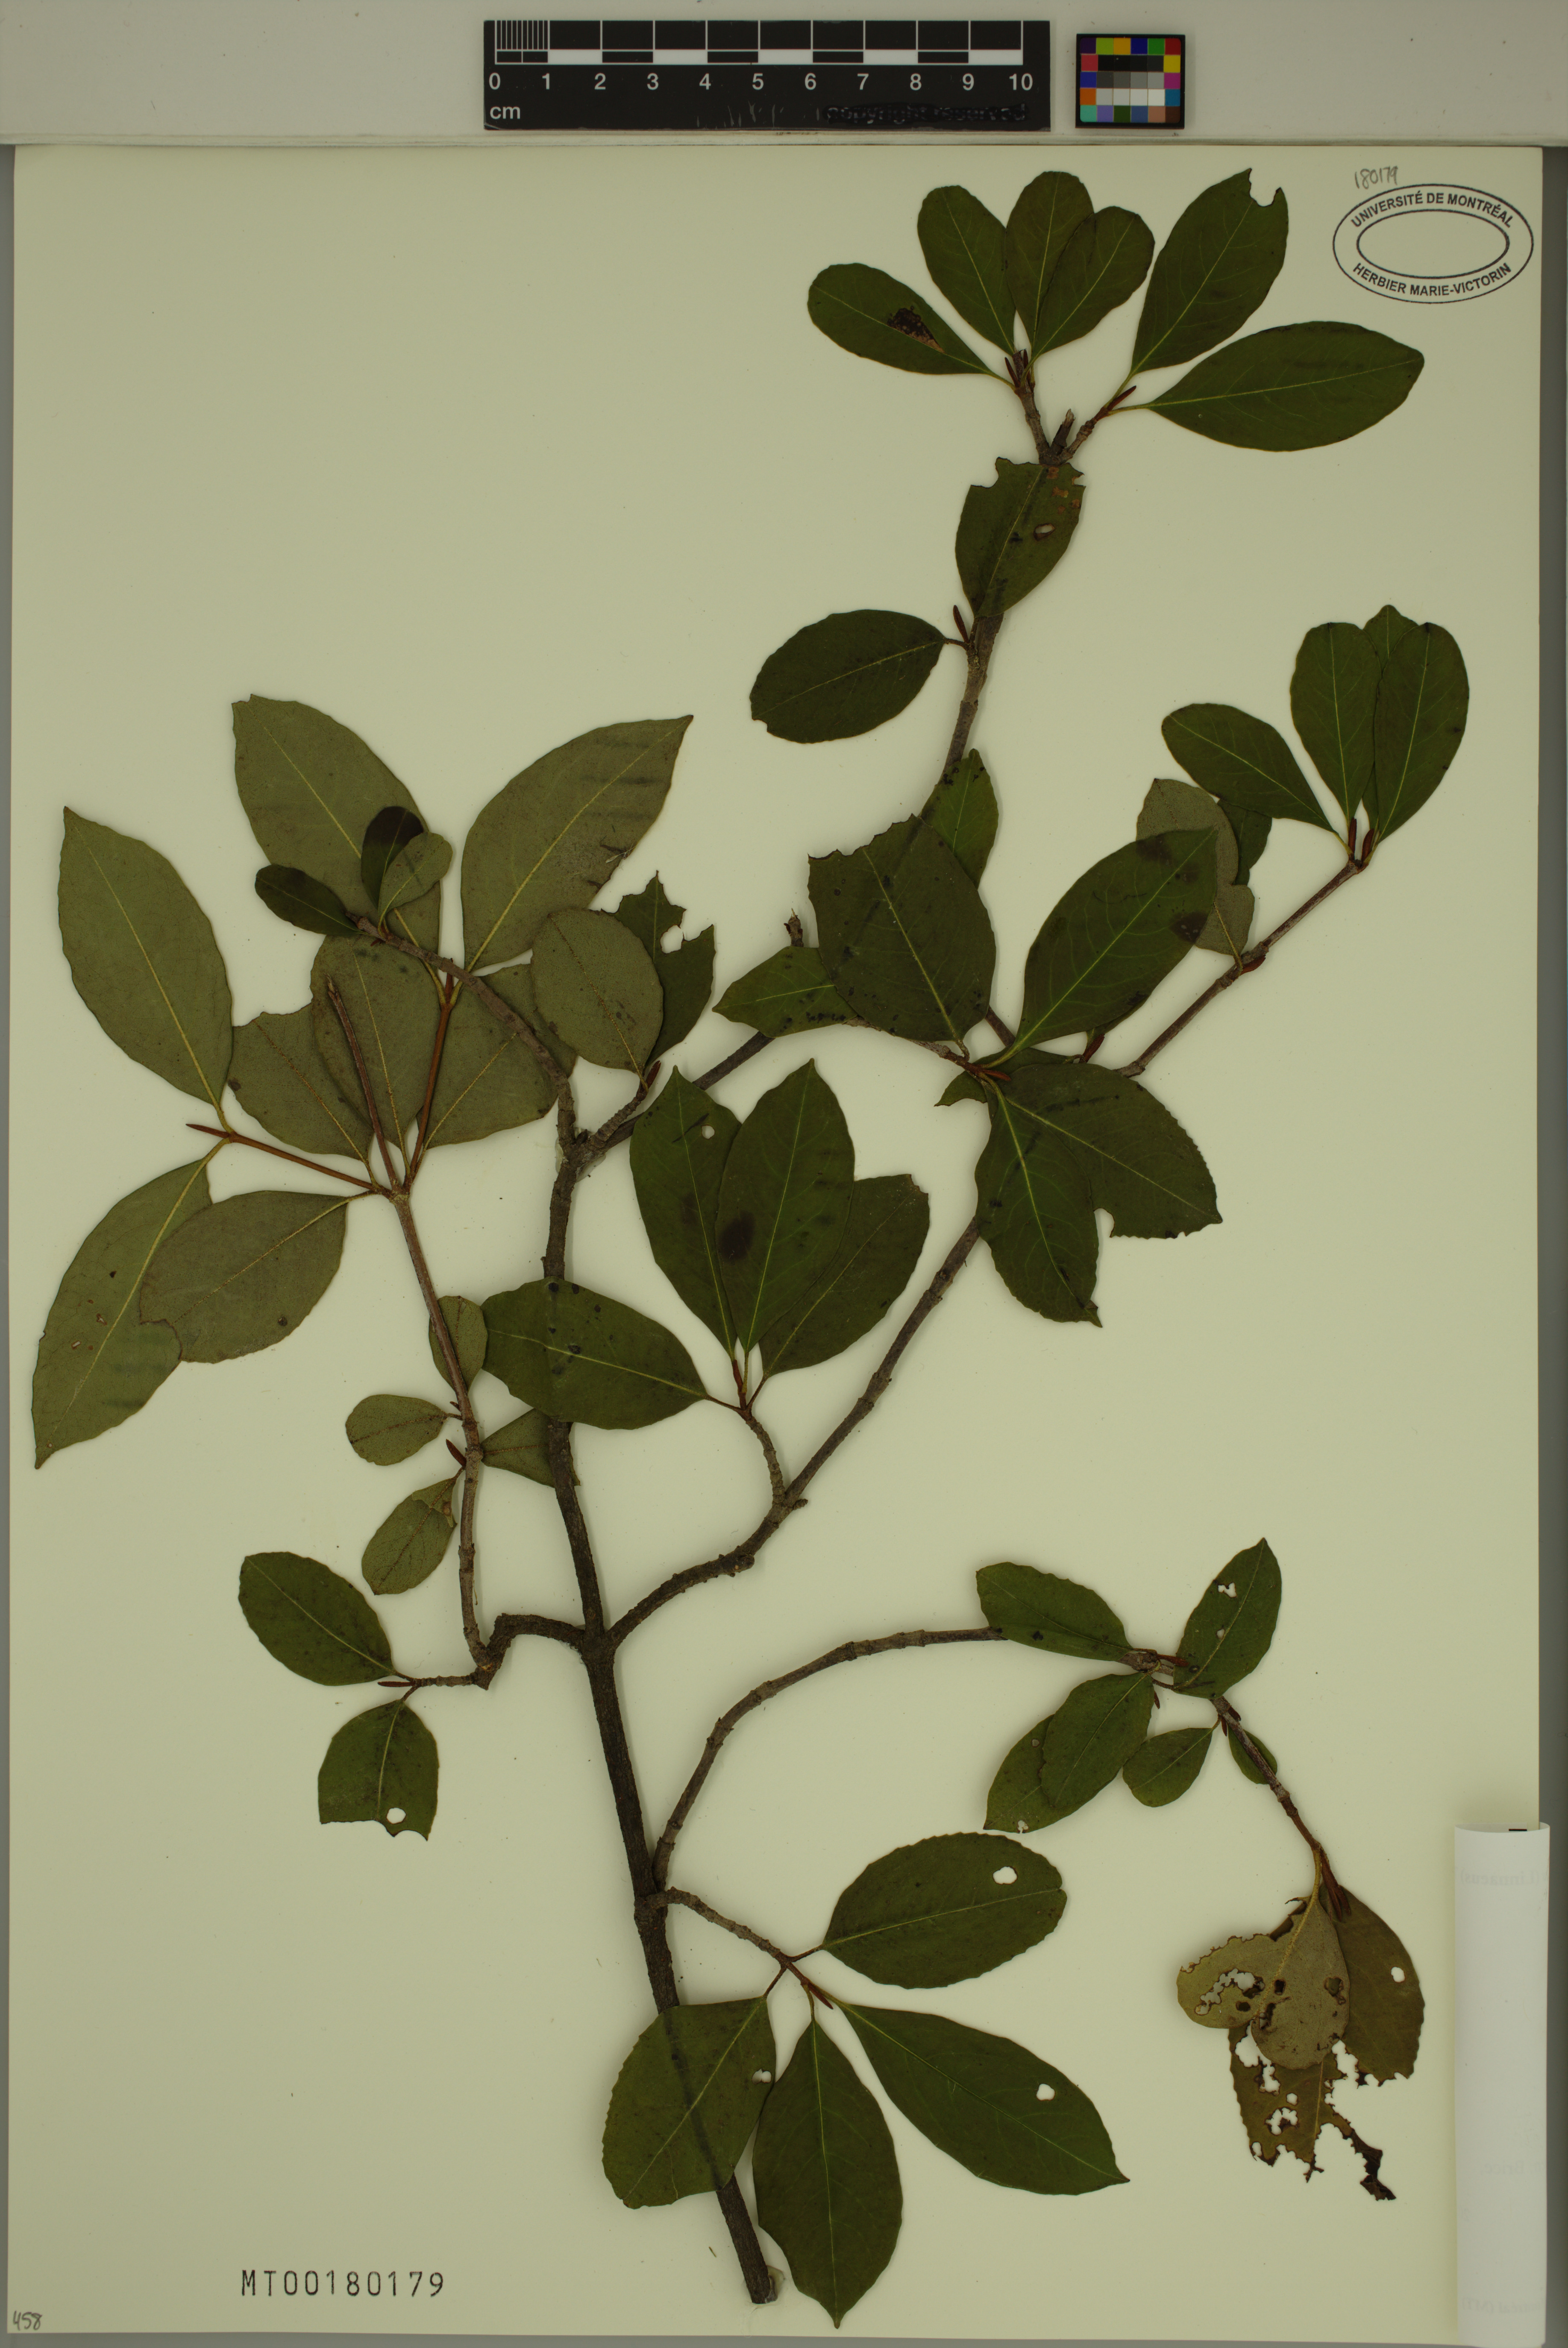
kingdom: Plantae
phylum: Tracheophyta
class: Magnoliopsida
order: Dipsacales
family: Viburnaceae
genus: Viburnum
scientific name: Viburnum cassinoides
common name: Swamp haw
